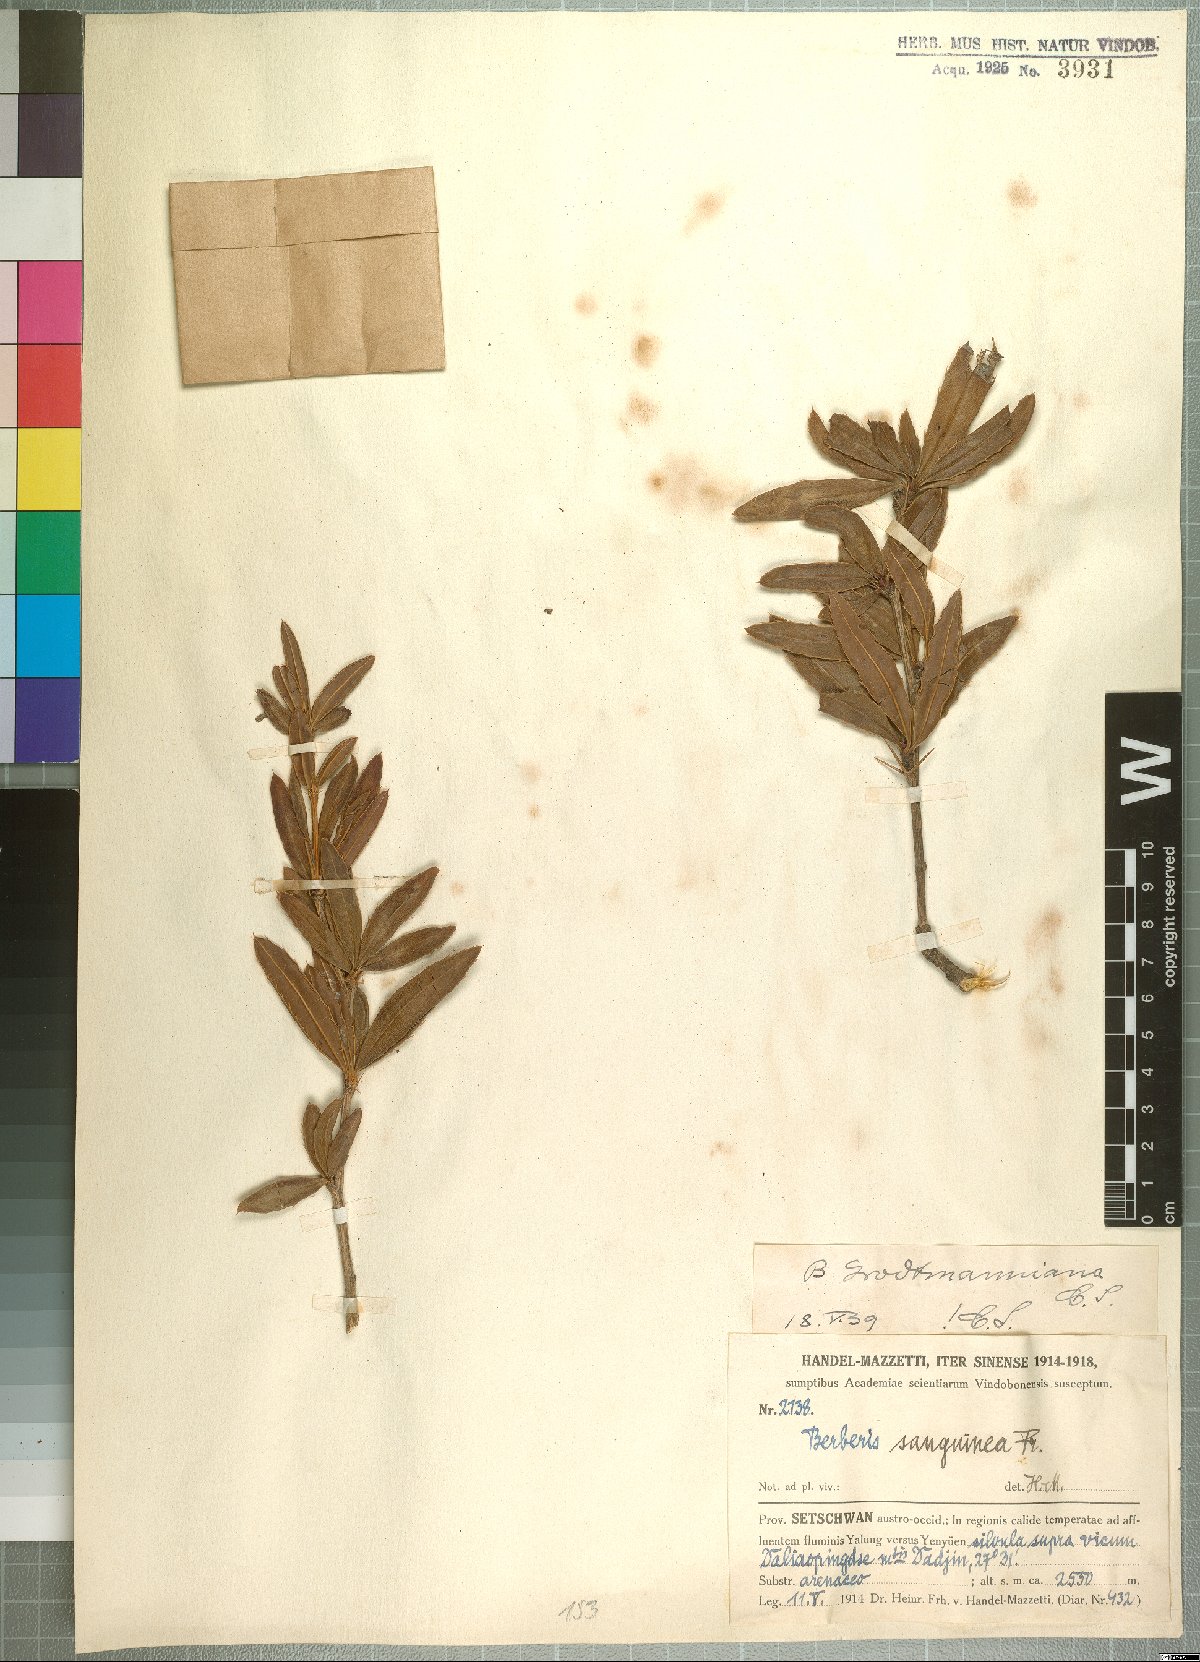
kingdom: Plantae
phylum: Tracheophyta
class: Magnoliopsida
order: Ranunculales
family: Berberidaceae
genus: Berberis
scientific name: Berberis grodtmanniana
